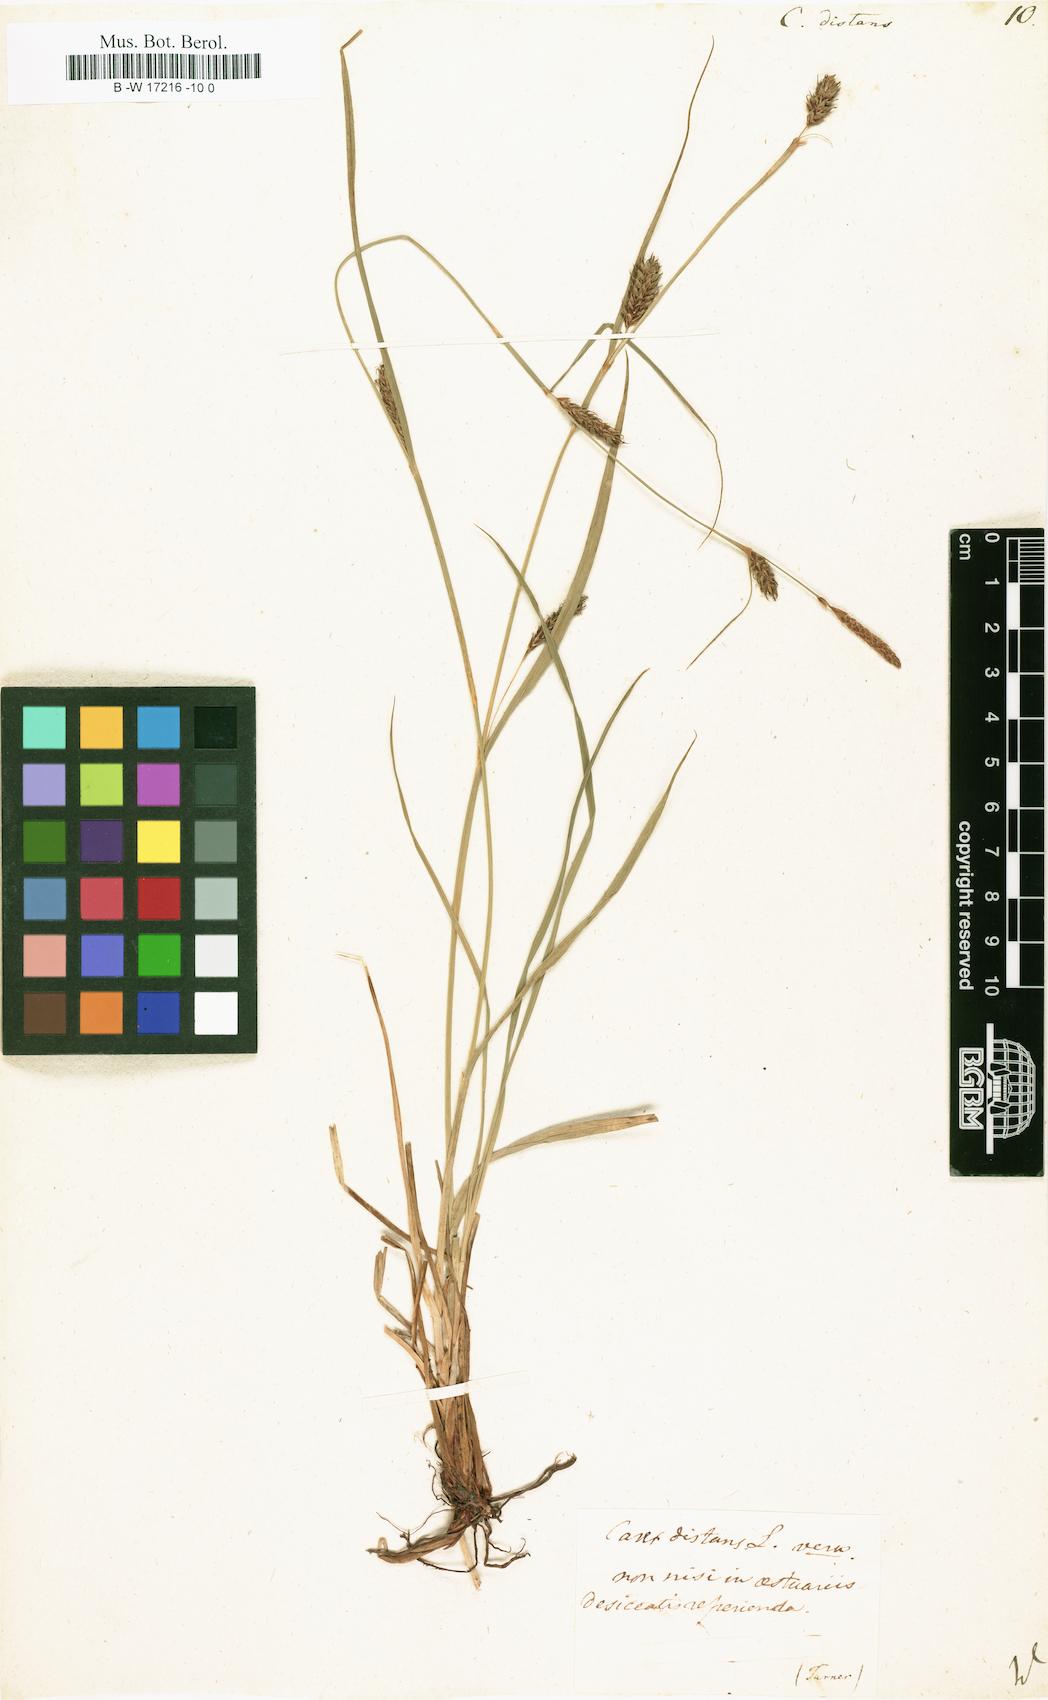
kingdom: Plantae
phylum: Tracheophyta
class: Liliopsida
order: Poales
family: Cyperaceae
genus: Carex
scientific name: Carex distans
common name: Distant sedge
